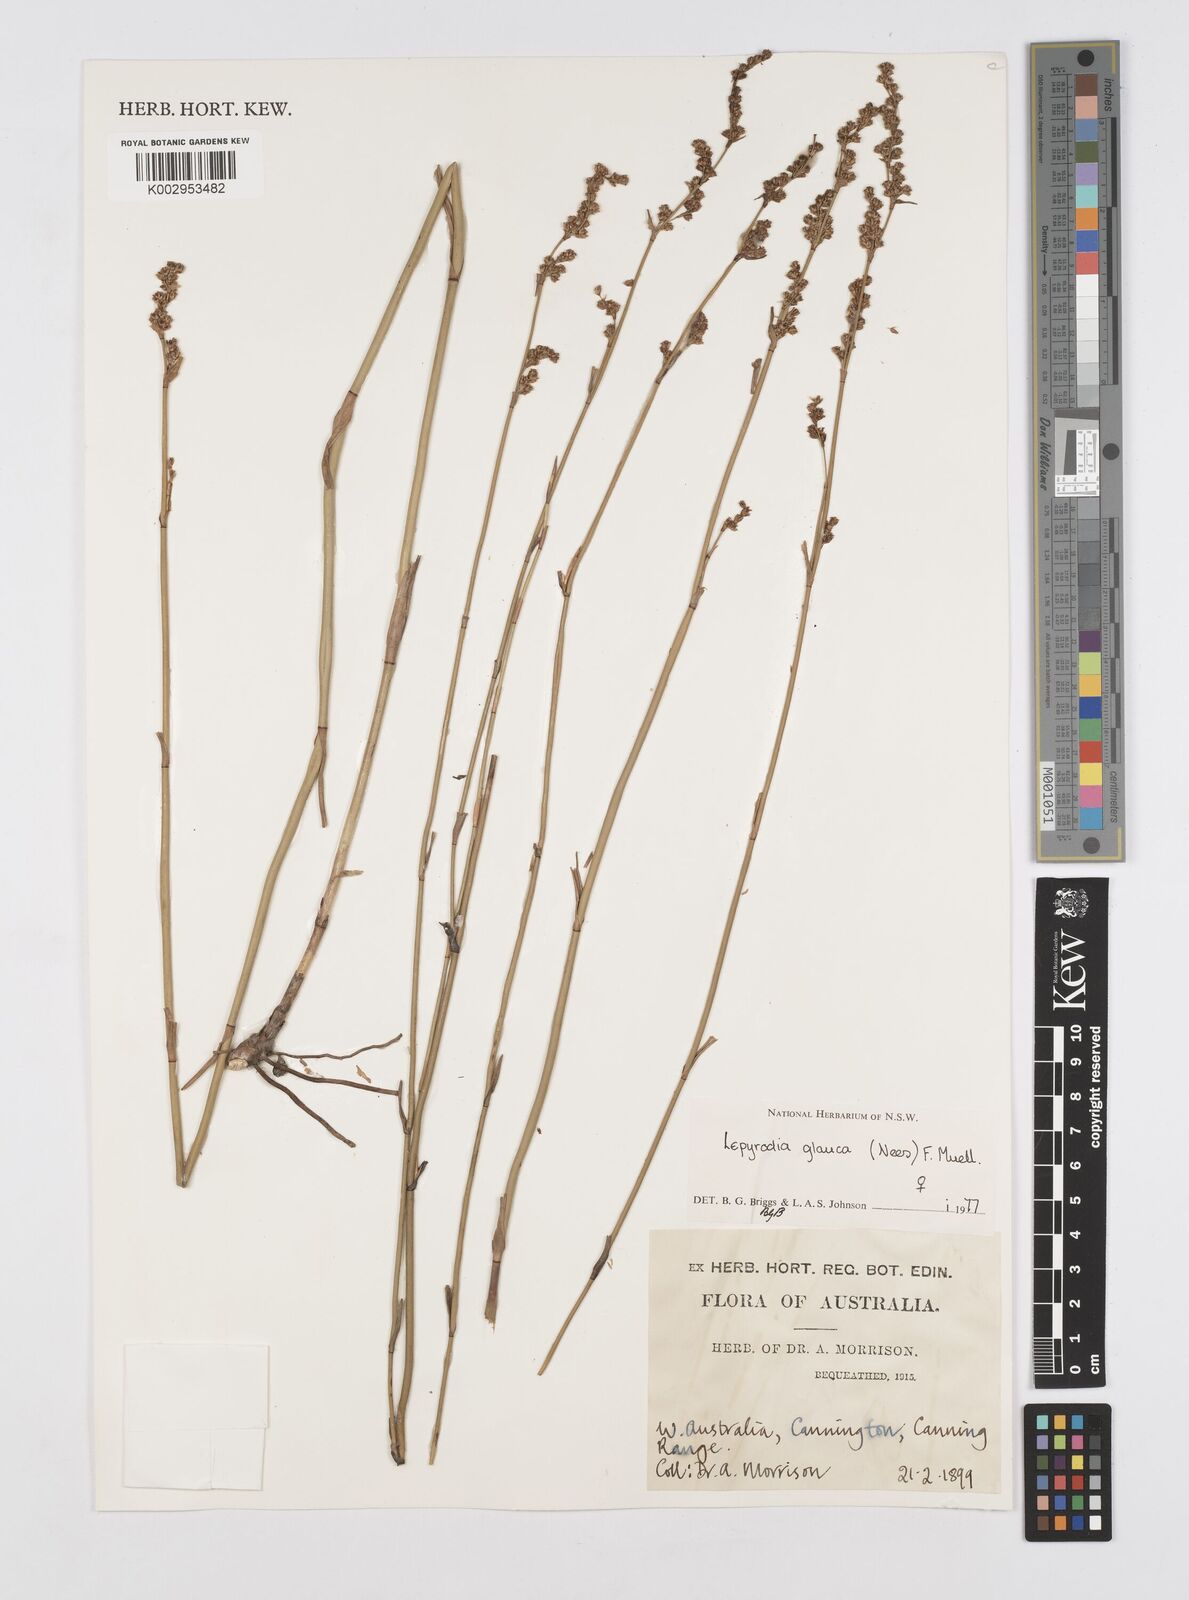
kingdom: Plantae
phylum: Tracheophyta
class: Liliopsida
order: Poales
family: Restionaceae
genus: Lepyrodia
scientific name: Lepyrodia glauca
